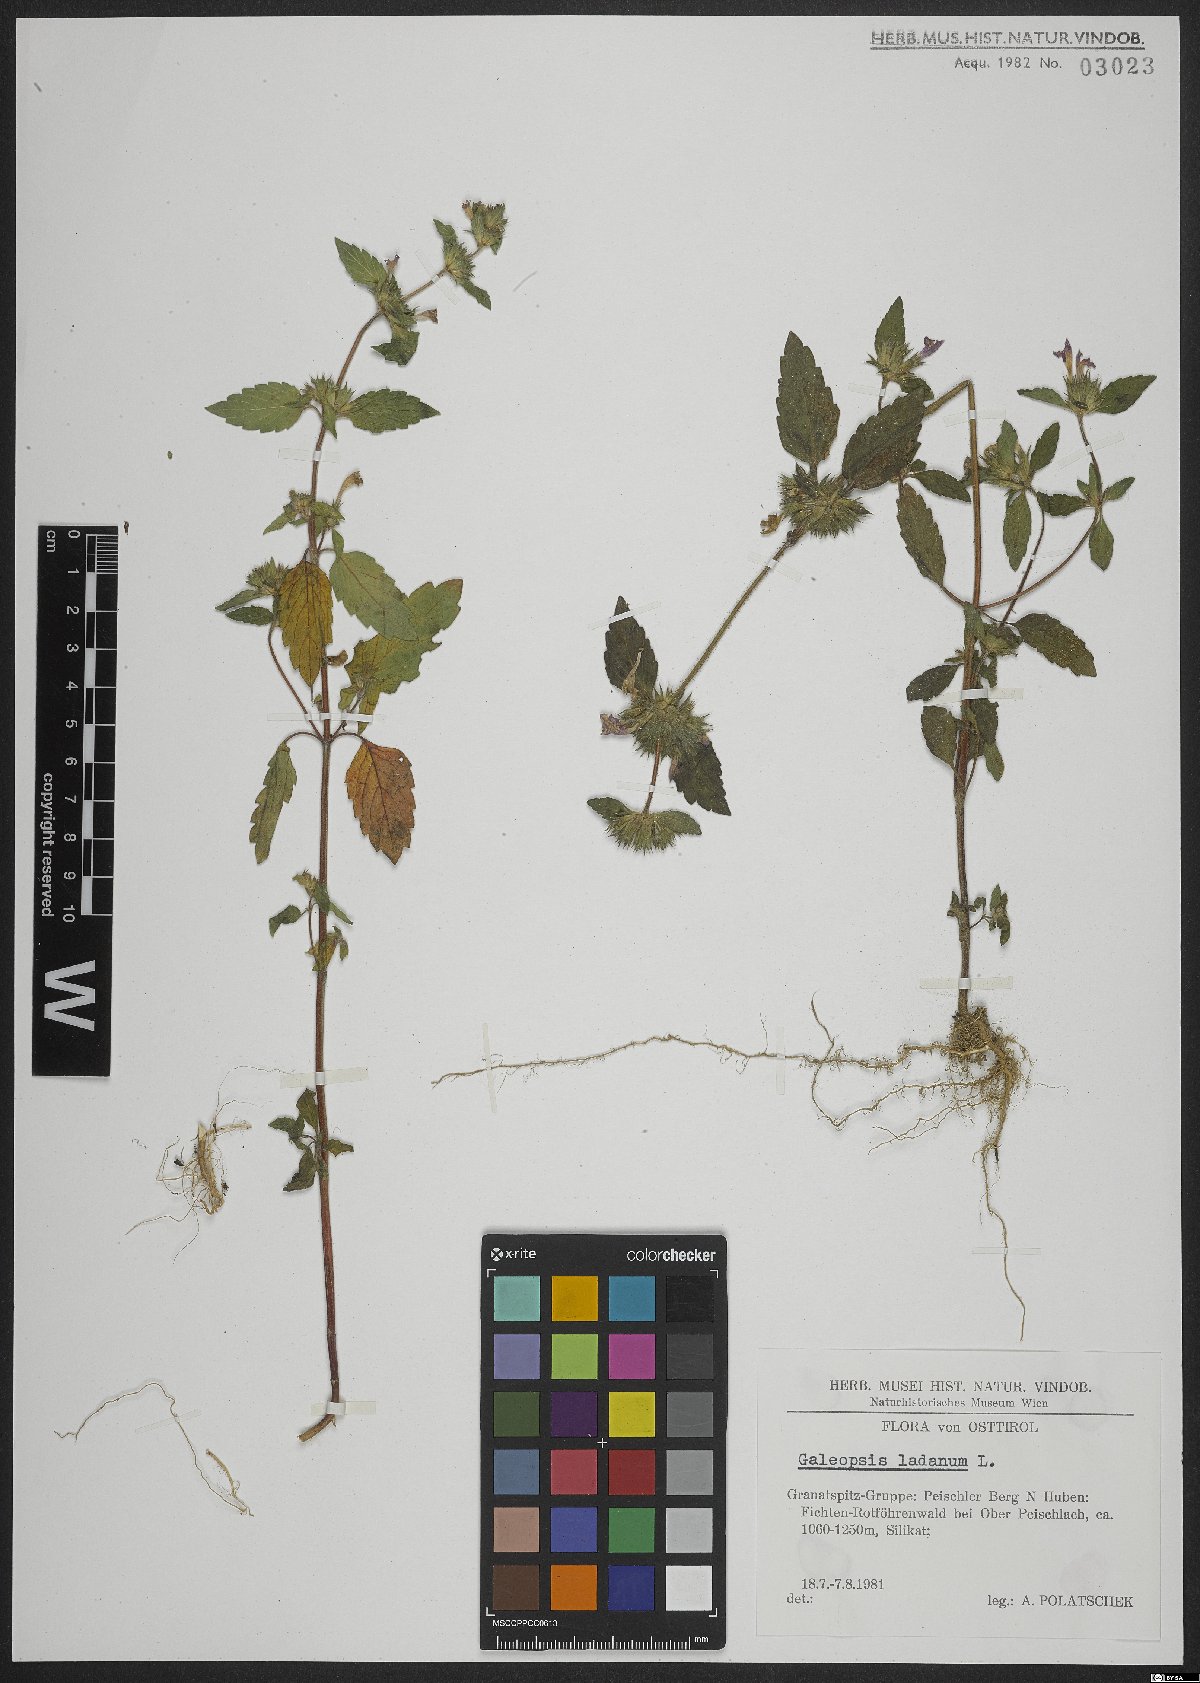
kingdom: Plantae
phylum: Tracheophyta
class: Magnoliopsida
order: Lamiales
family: Lamiaceae
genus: Galeopsis
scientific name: Galeopsis ladanum
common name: Broad-leaved hemp-nettle
